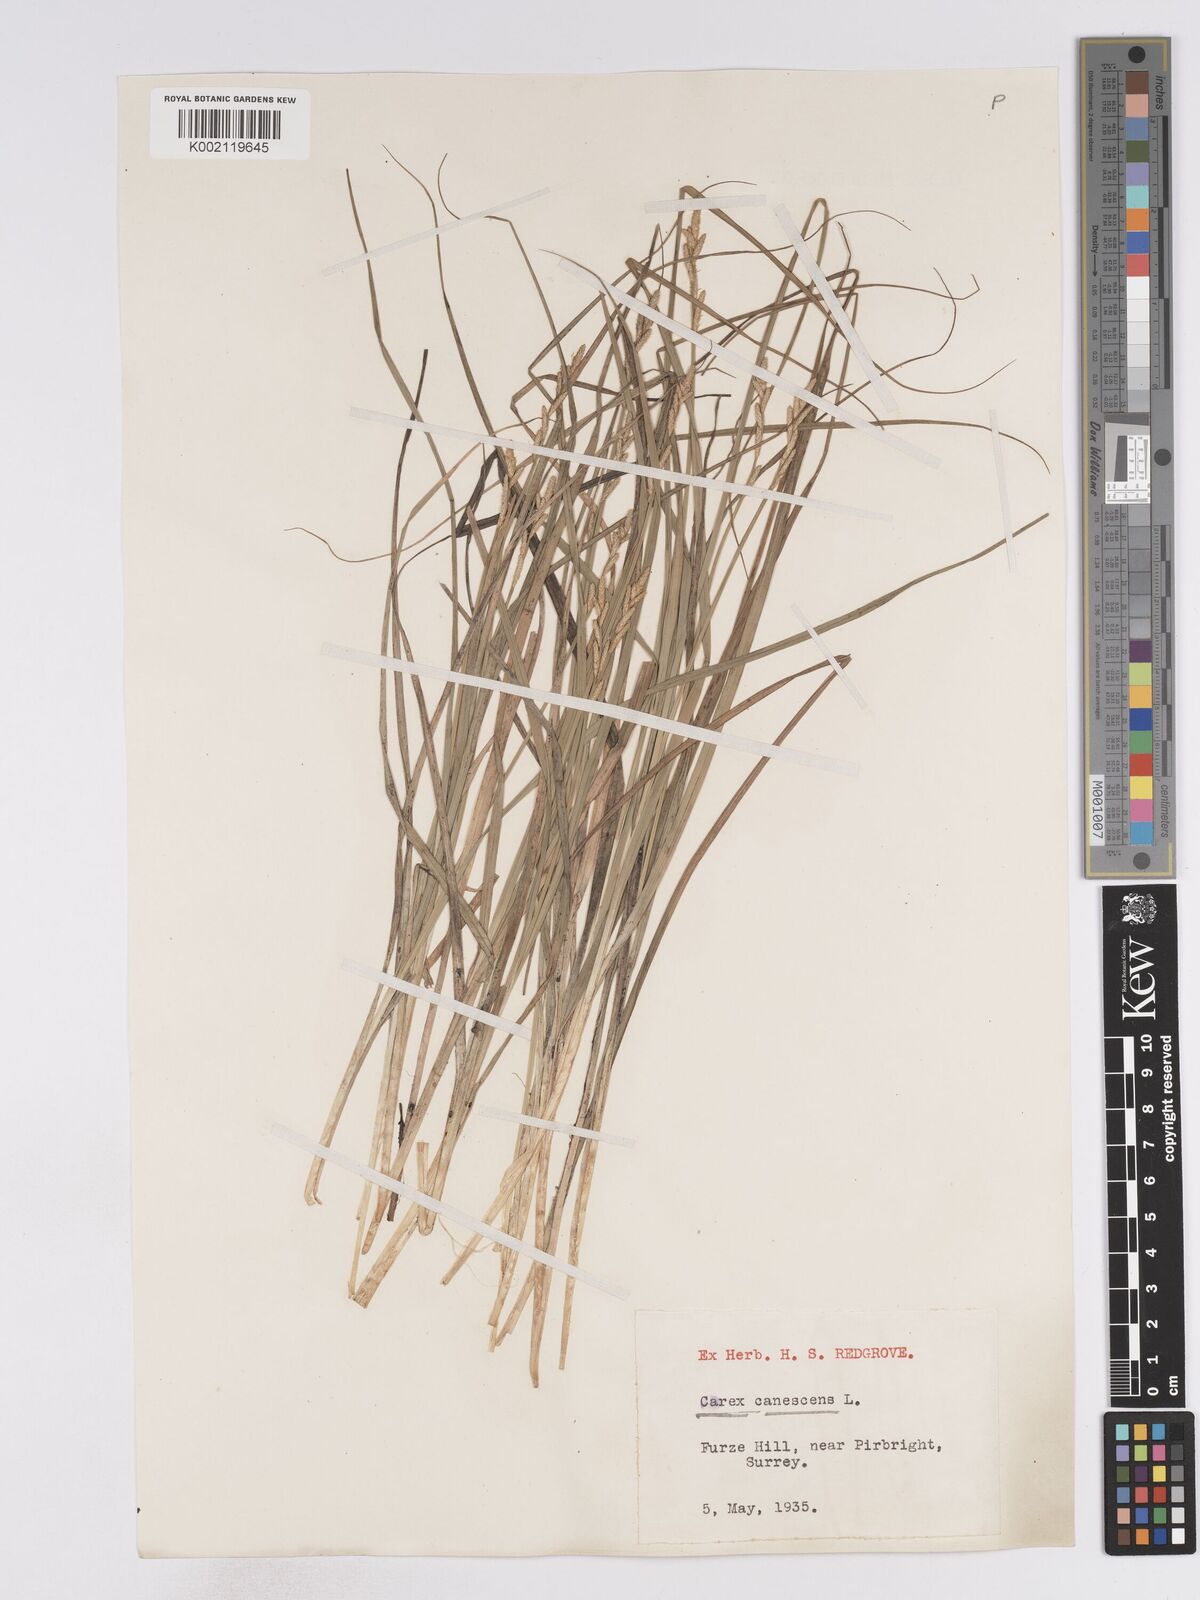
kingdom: Plantae
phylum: Tracheophyta
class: Liliopsida
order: Poales
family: Cyperaceae
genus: Carex
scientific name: Carex curta
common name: White sedge
